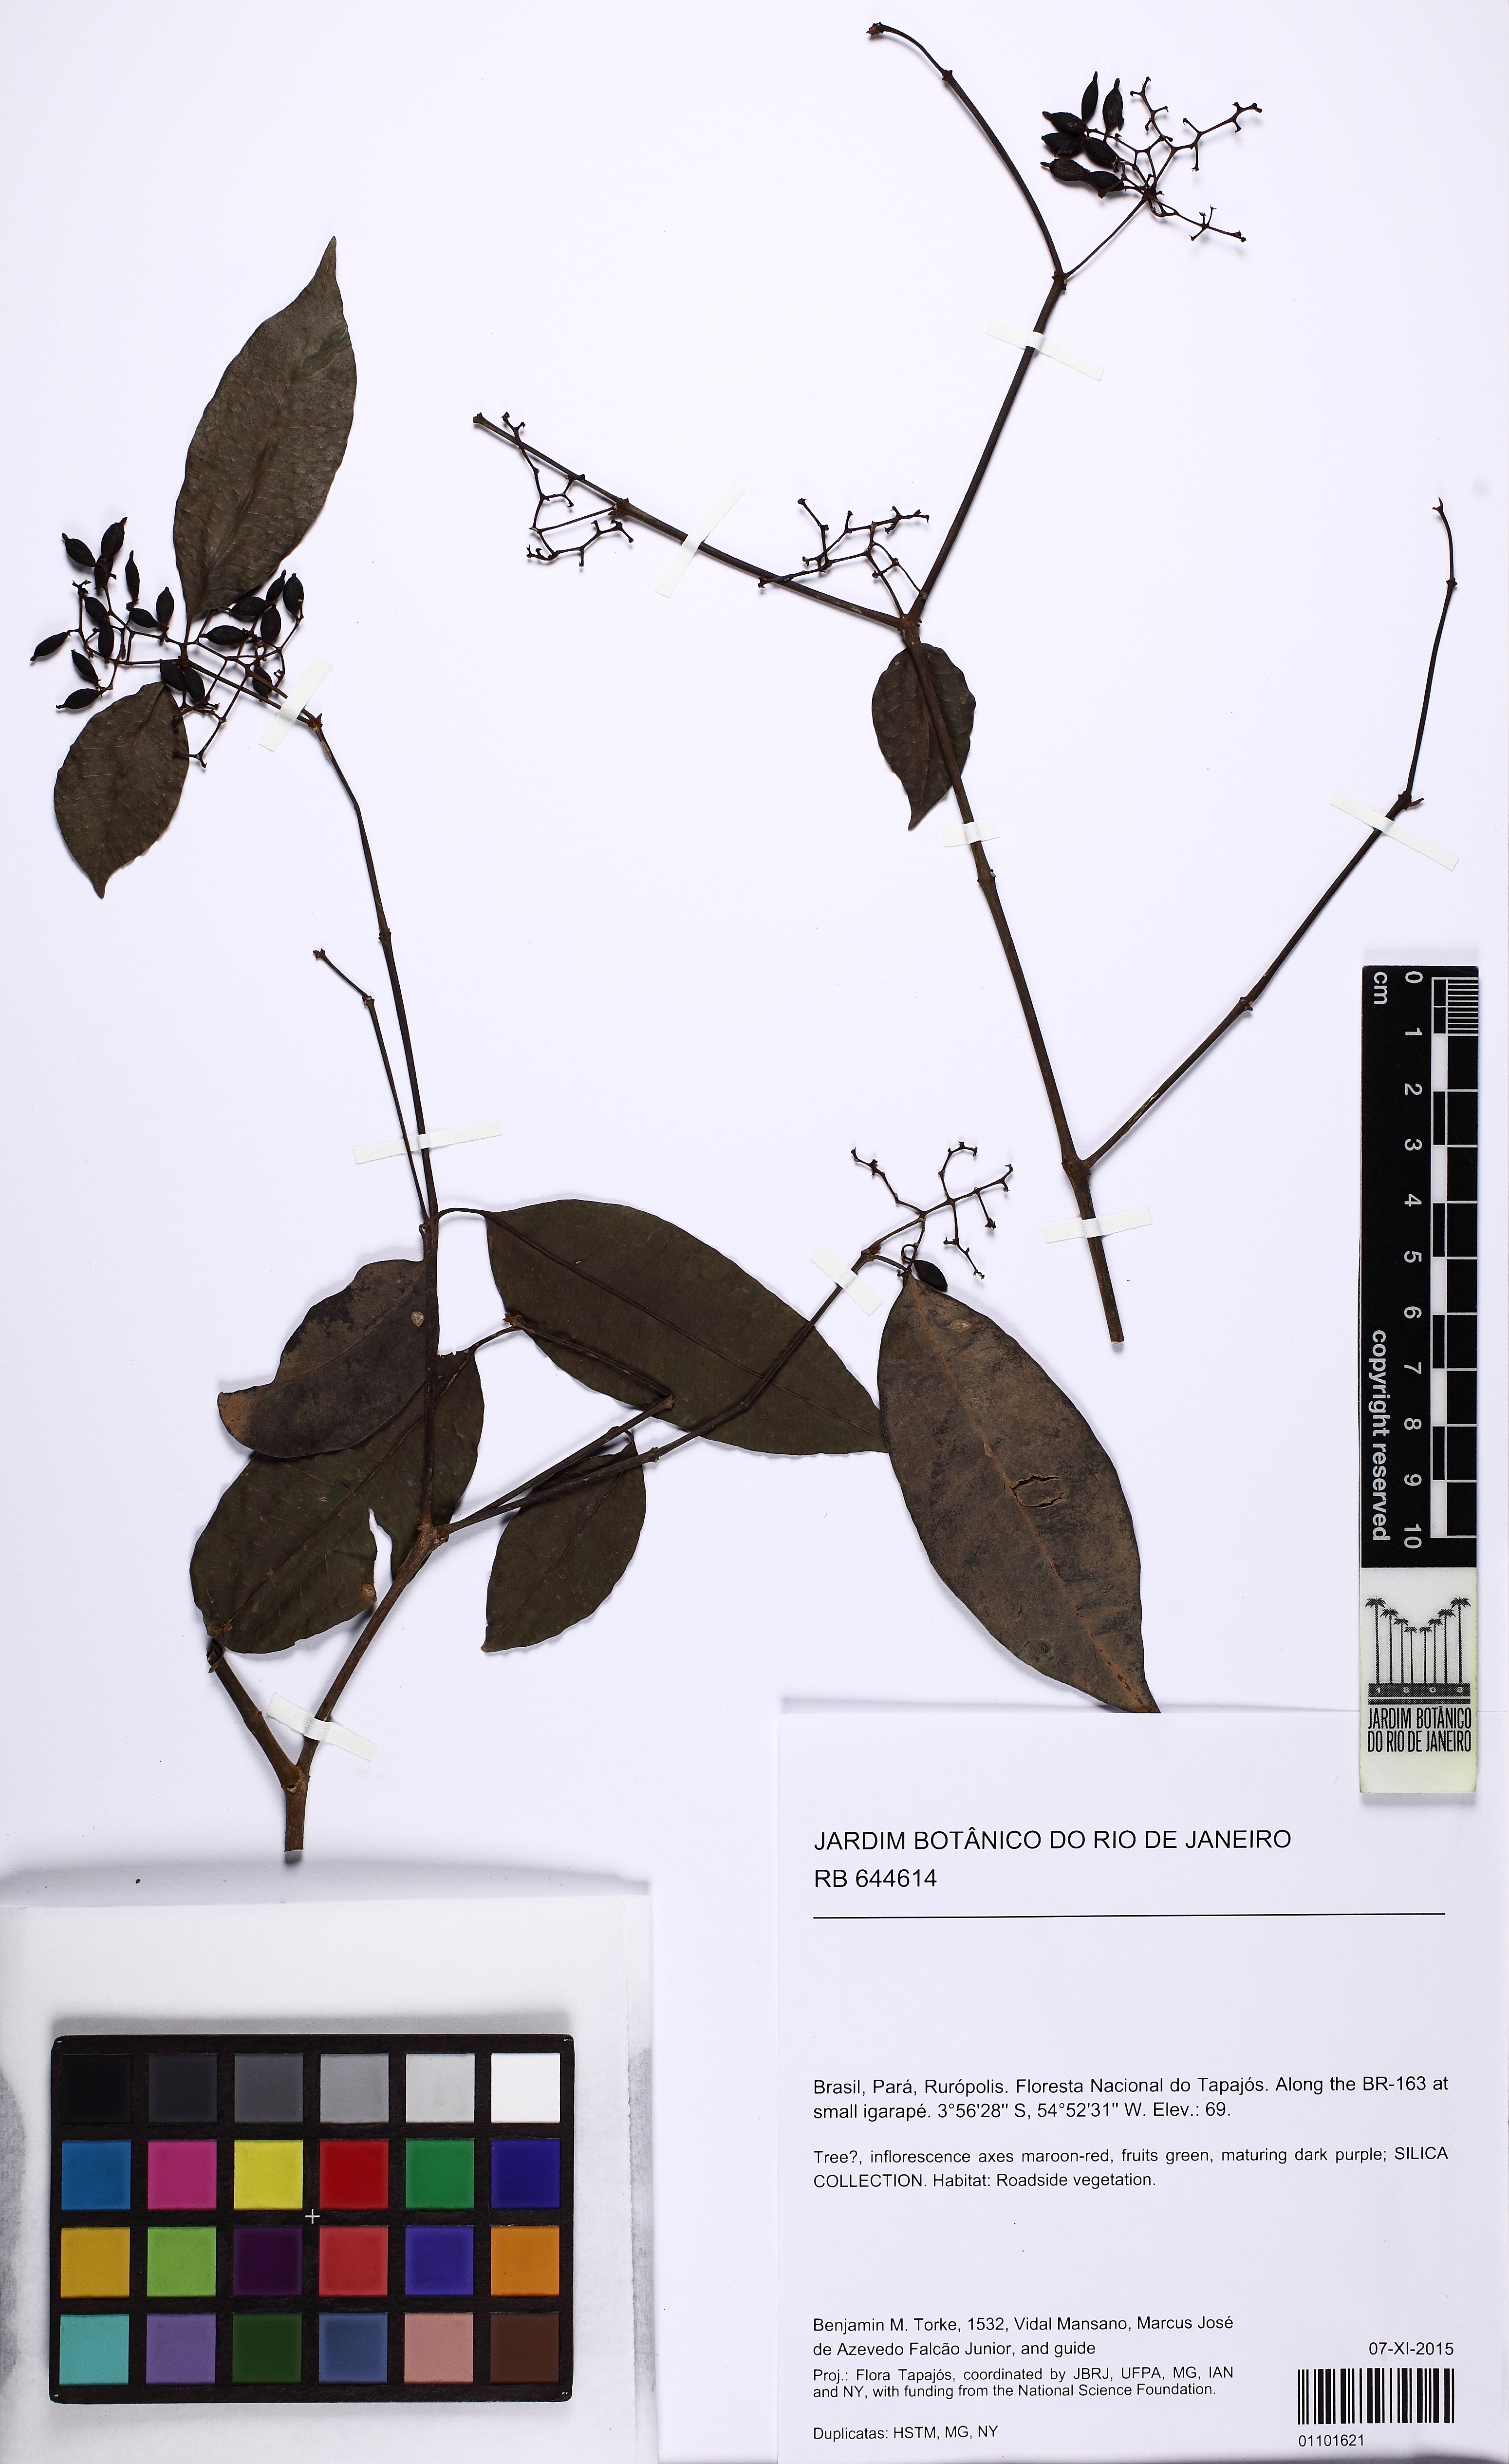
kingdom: Plantae
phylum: Tracheophyta
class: Magnoliopsida
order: Caryophyllales
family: Nyctaginaceae
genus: Neea
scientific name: Neea hermaphrodita
